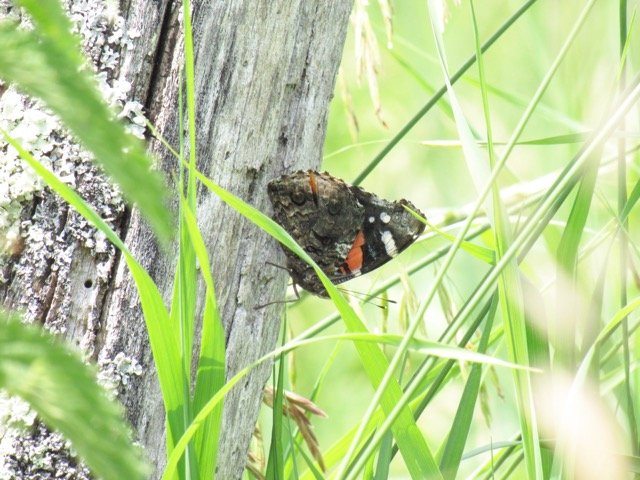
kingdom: Animalia
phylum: Arthropoda
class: Insecta
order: Lepidoptera
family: Nymphalidae
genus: Vanessa
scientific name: Vanessa atalanta
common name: Red Admiral
